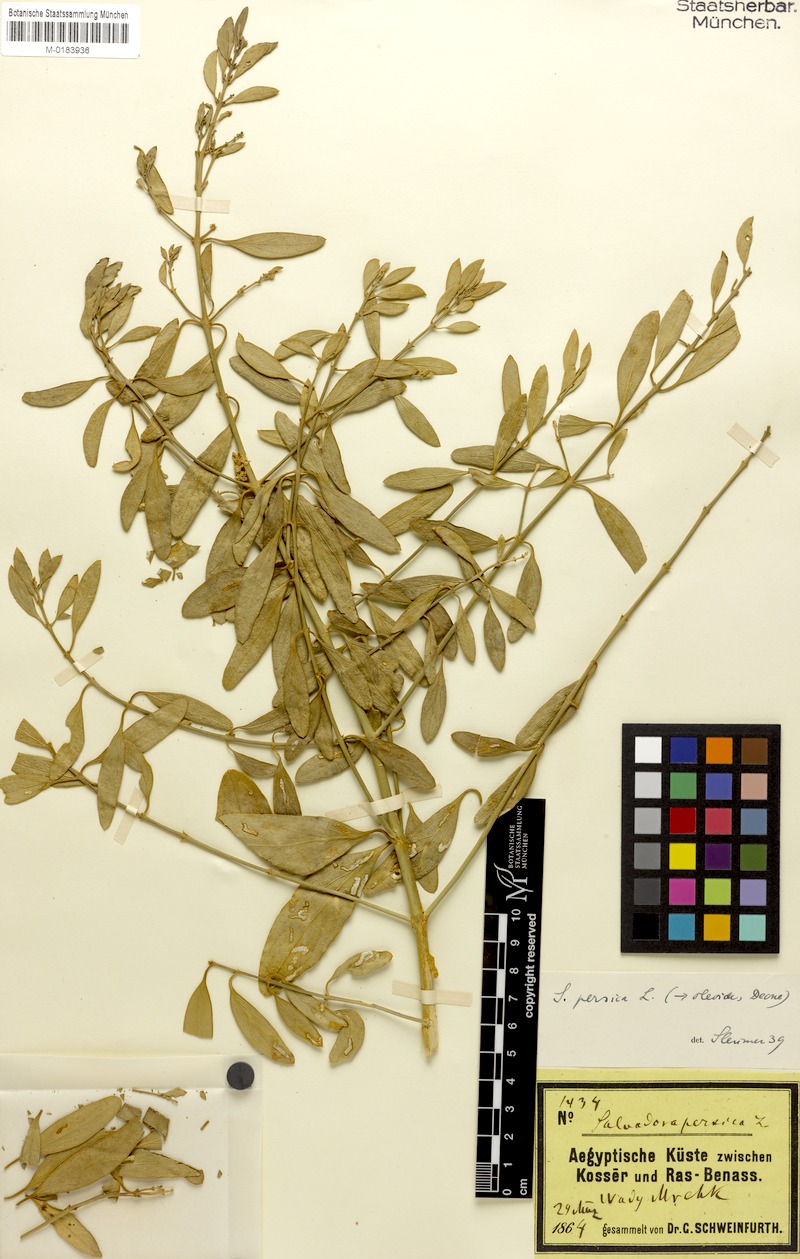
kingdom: Plantae
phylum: Tracheophyta
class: Magnoliopsida
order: Brassicales
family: Salvadoraceae
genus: Salvadora
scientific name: Salvadora persica
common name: Toothbrushtree
